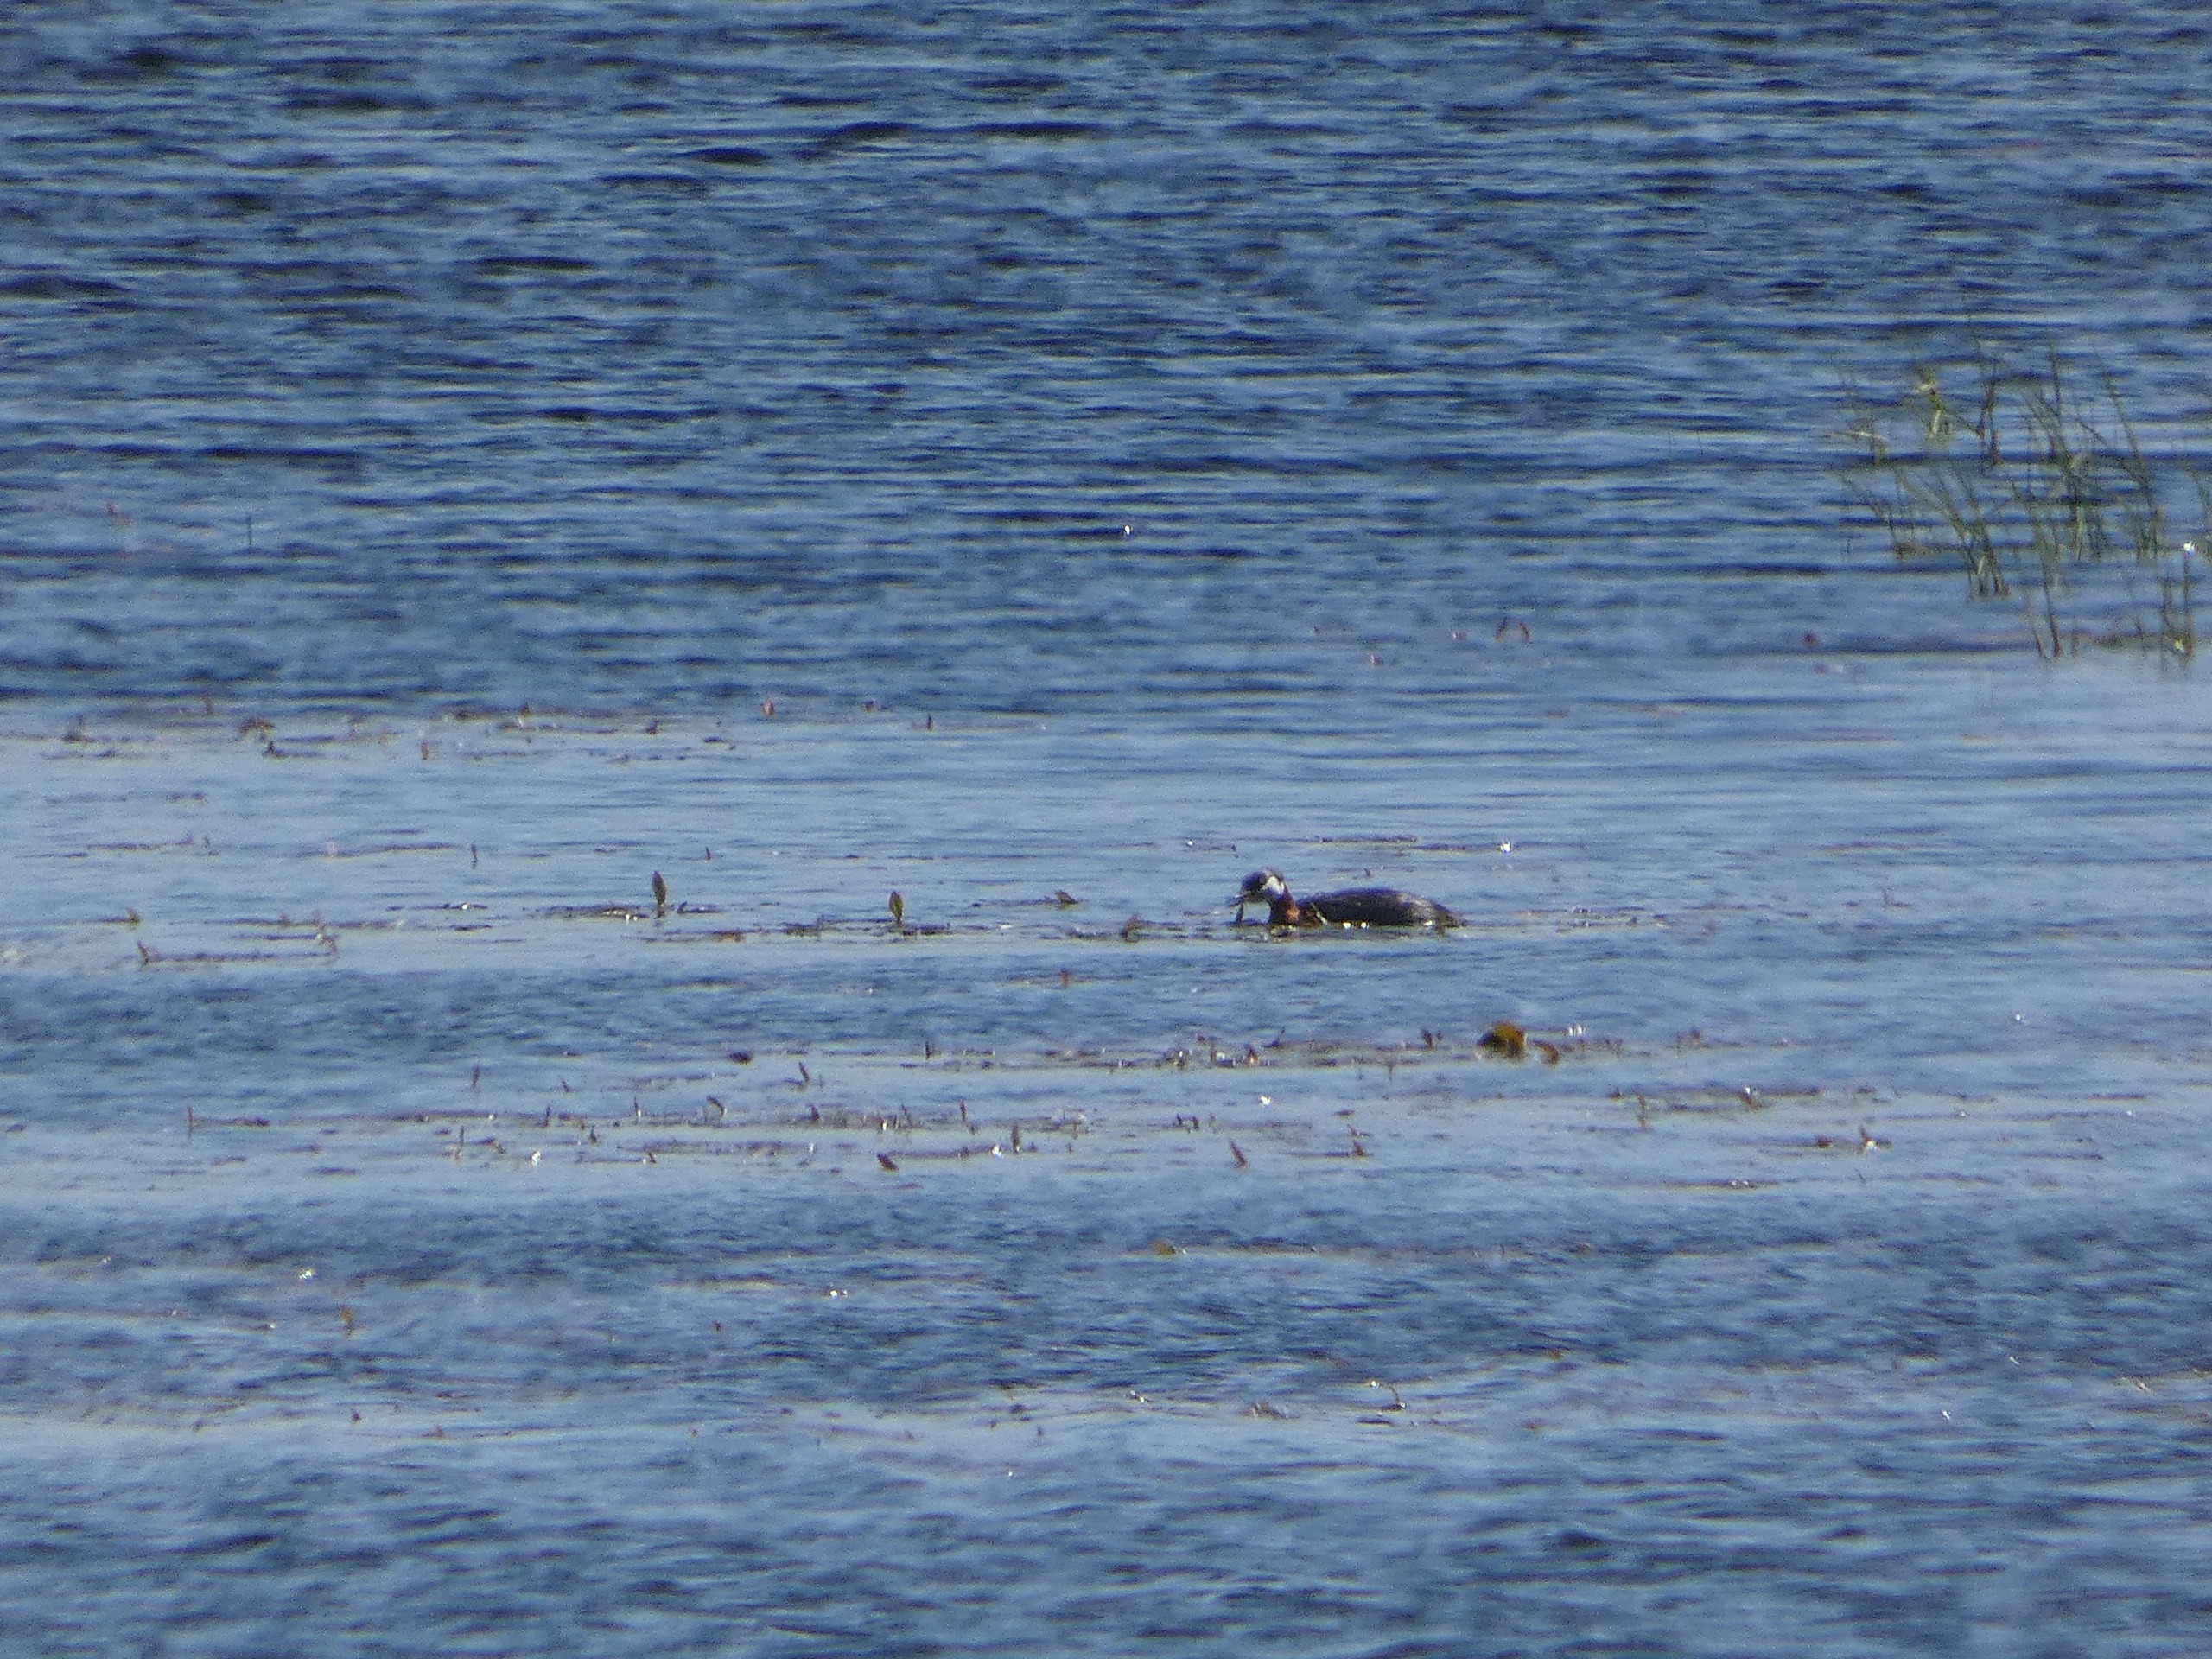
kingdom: Animalia
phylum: Chordata
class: Aves
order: Podicipediformes
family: Podicipedidae
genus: Podiceps
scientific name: Podiceps grisegena
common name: Gråstrubet lappedykker
